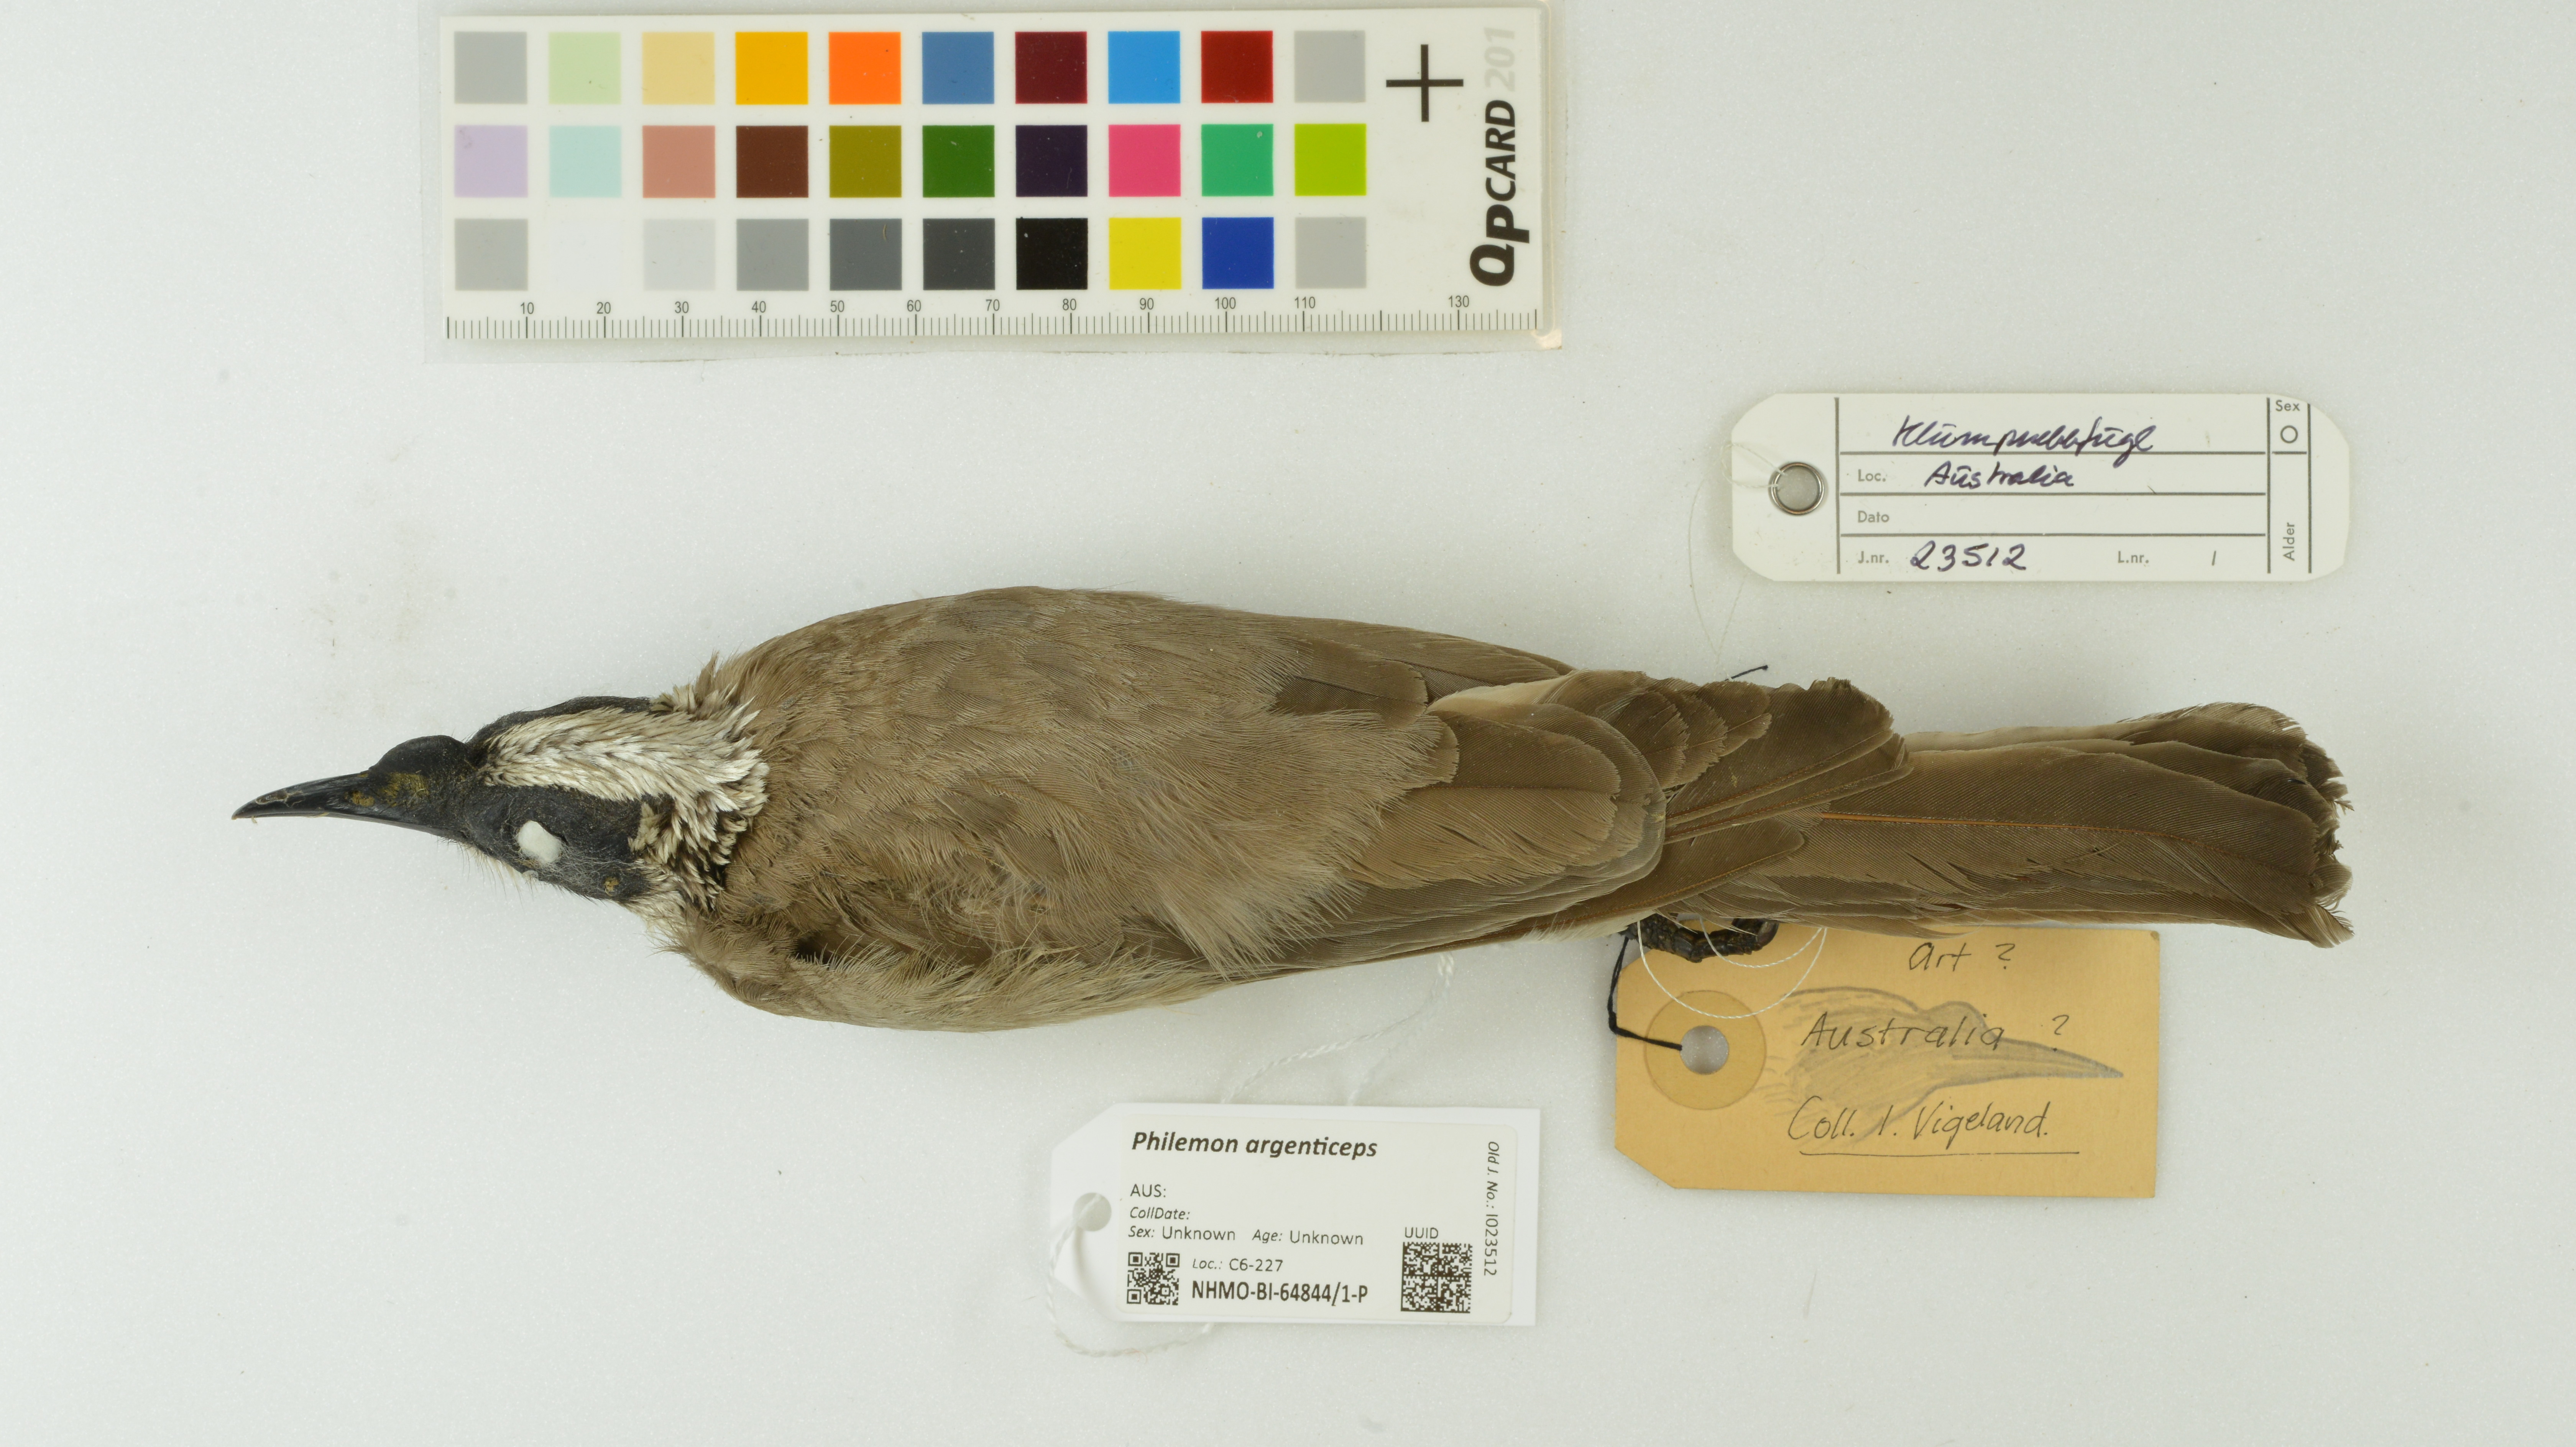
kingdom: Animalia
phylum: Chordata
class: Aves
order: Passeriformes
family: Meliphagidae
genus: Philemon
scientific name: Philemon argenticeps
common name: Silver-crowned friarbird
